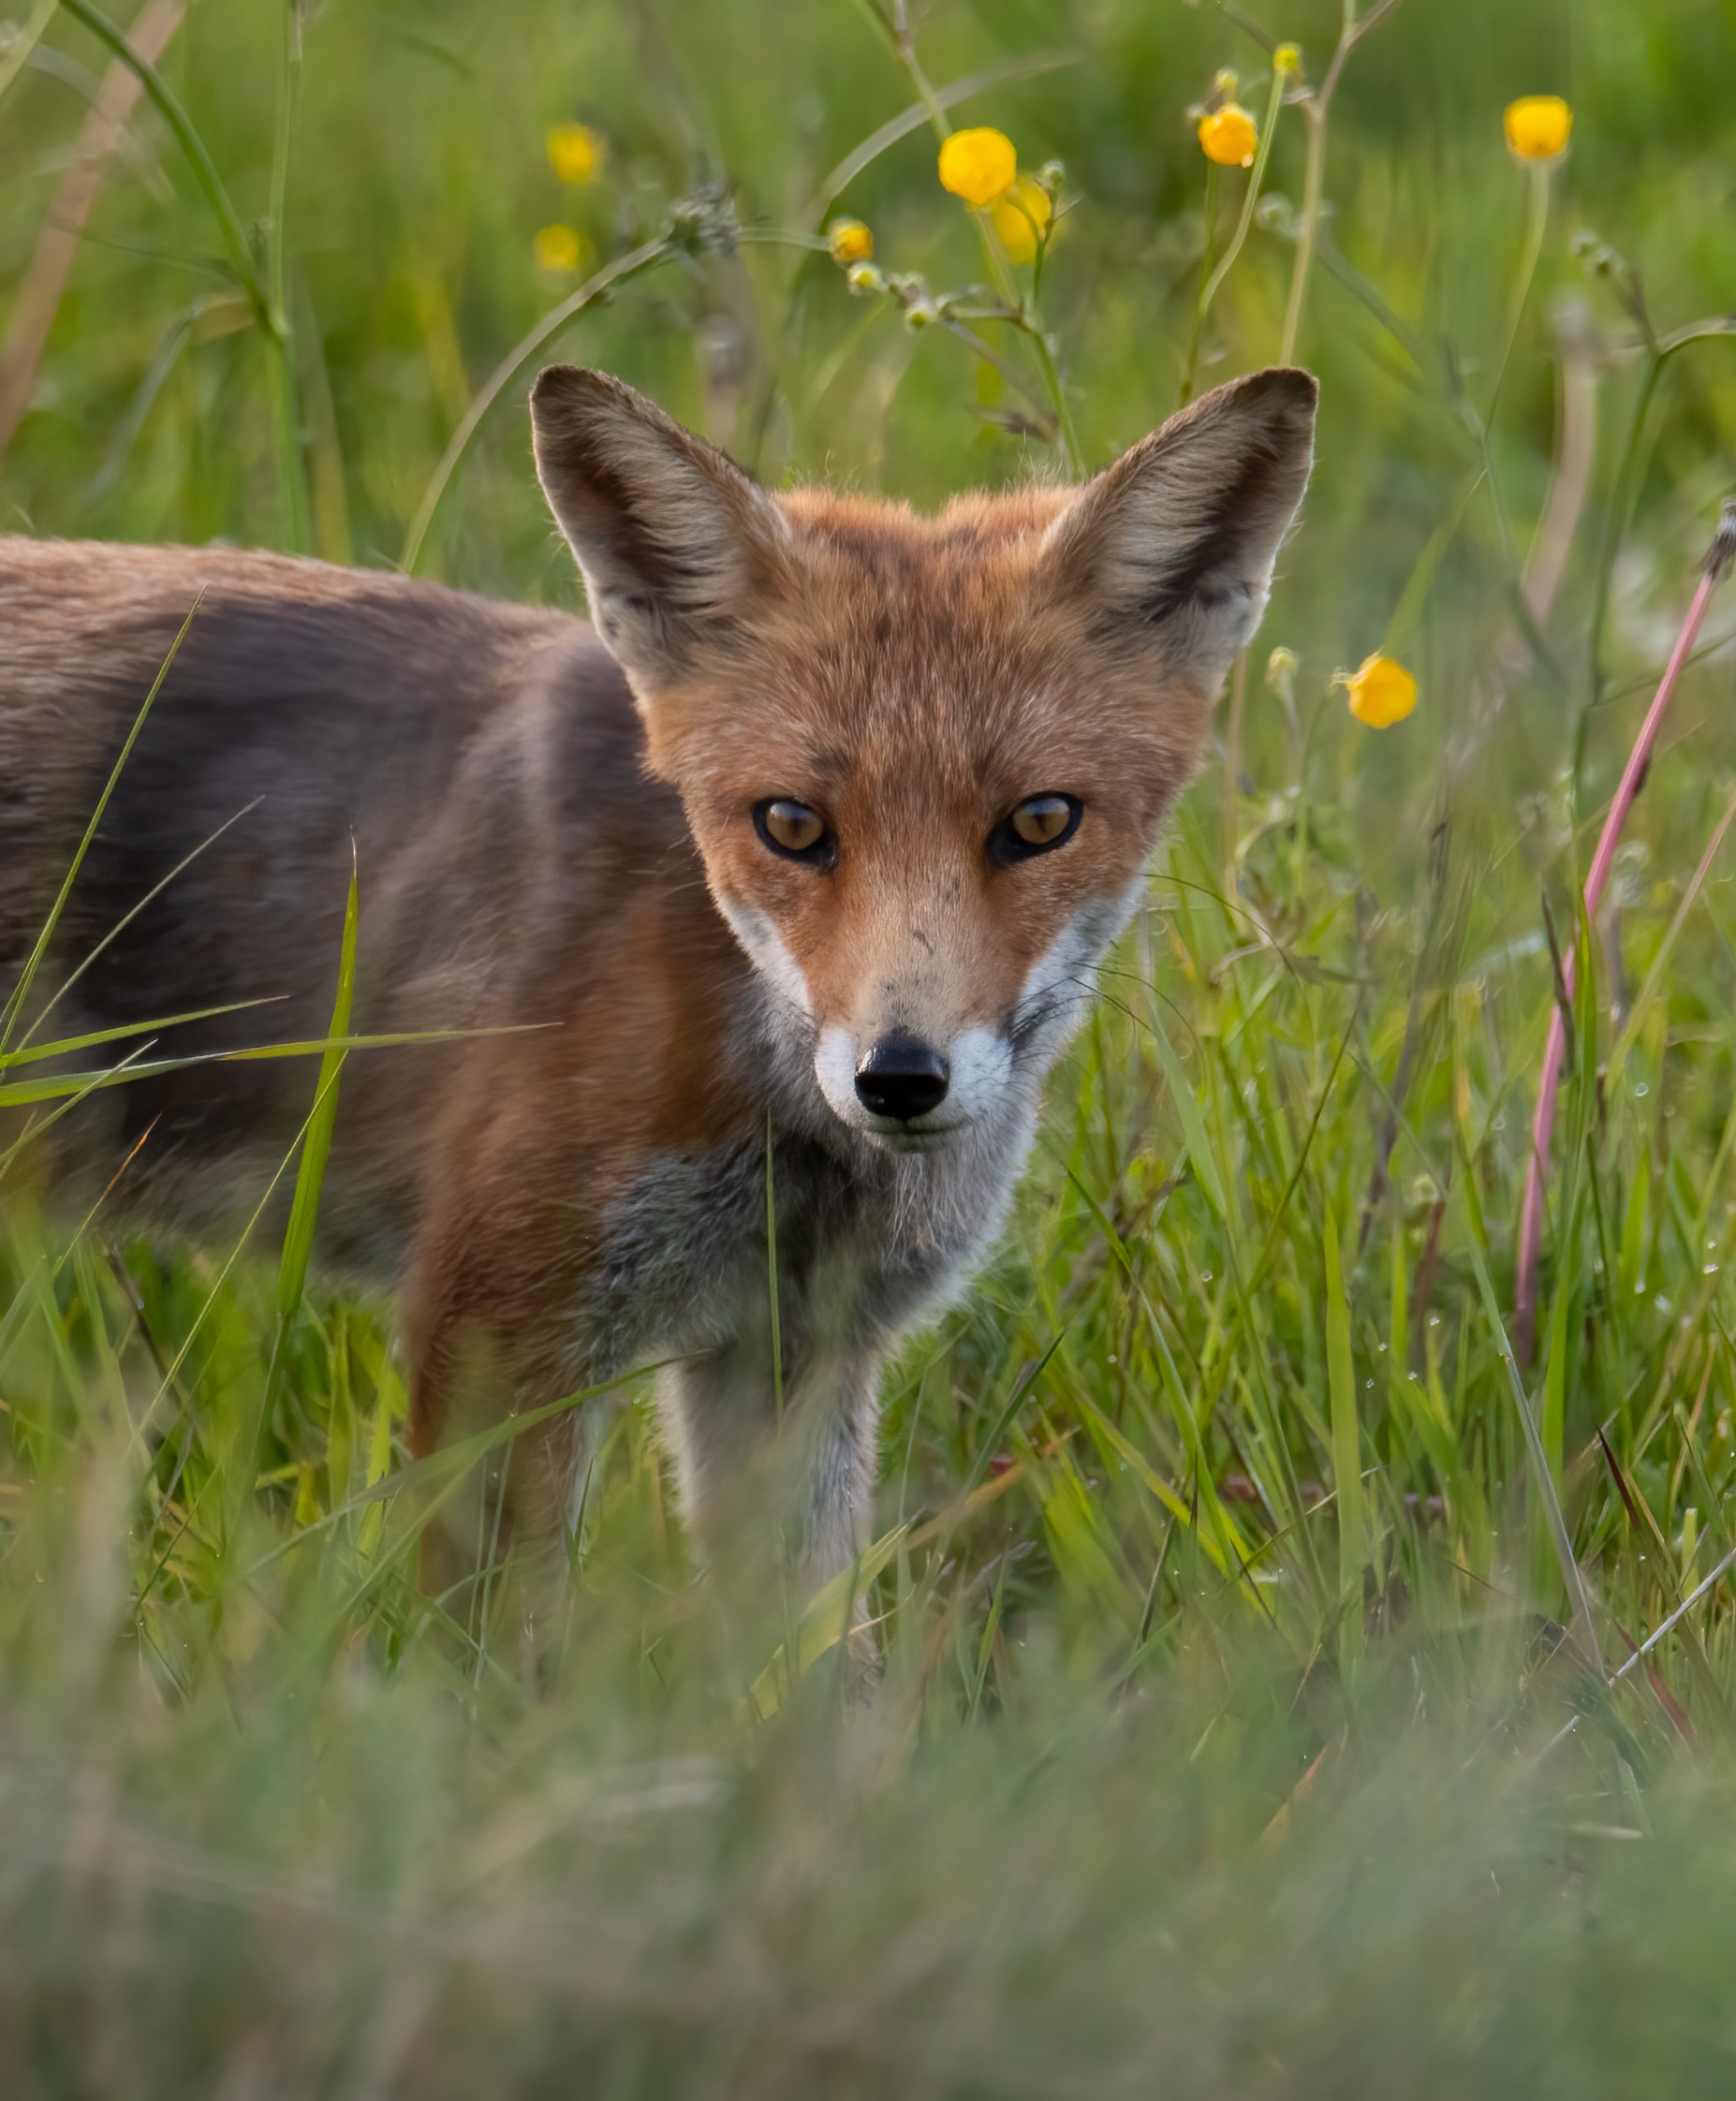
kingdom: Animalia
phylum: Chordata
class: Mammalia
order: Carnivora
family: Canidae
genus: Vulpes
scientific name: Vulpes vulpes
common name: Ræv
